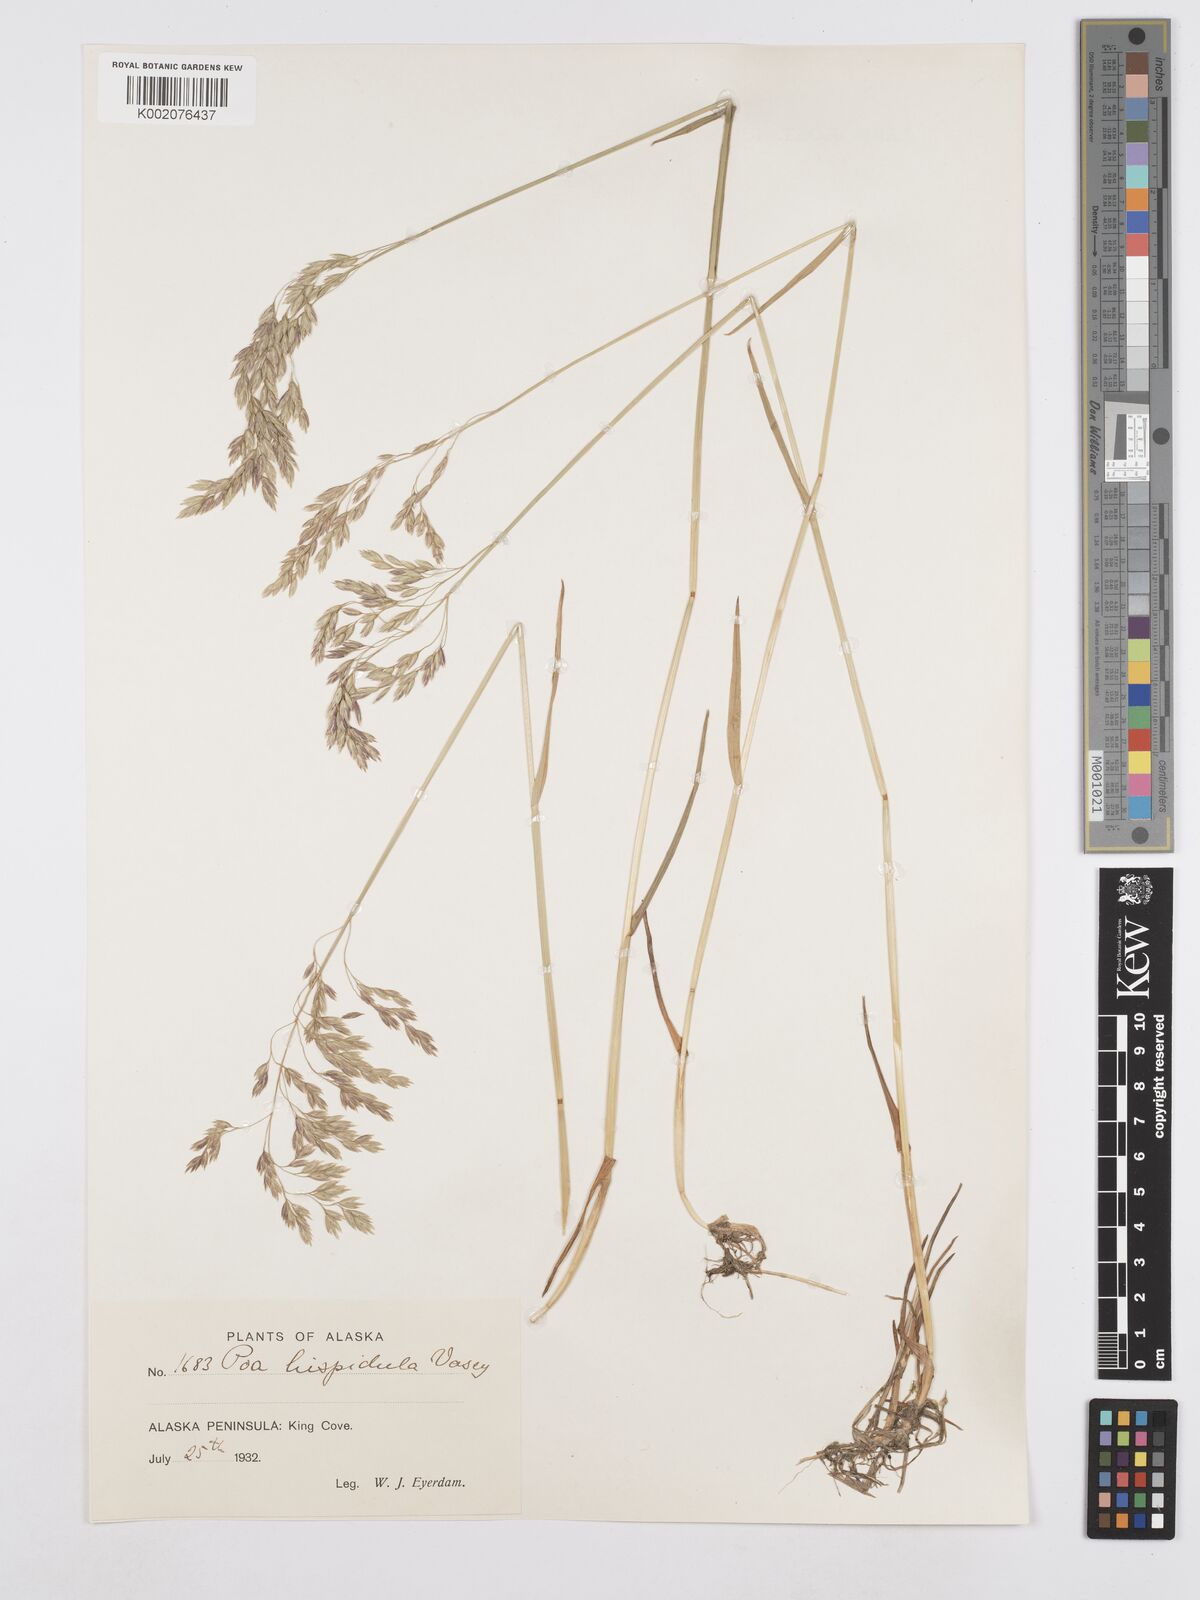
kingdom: Plantae
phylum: Tracheophyta
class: Liliopsida
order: Poales
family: Poaceae
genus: Poa
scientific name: Poa macrocalyx
